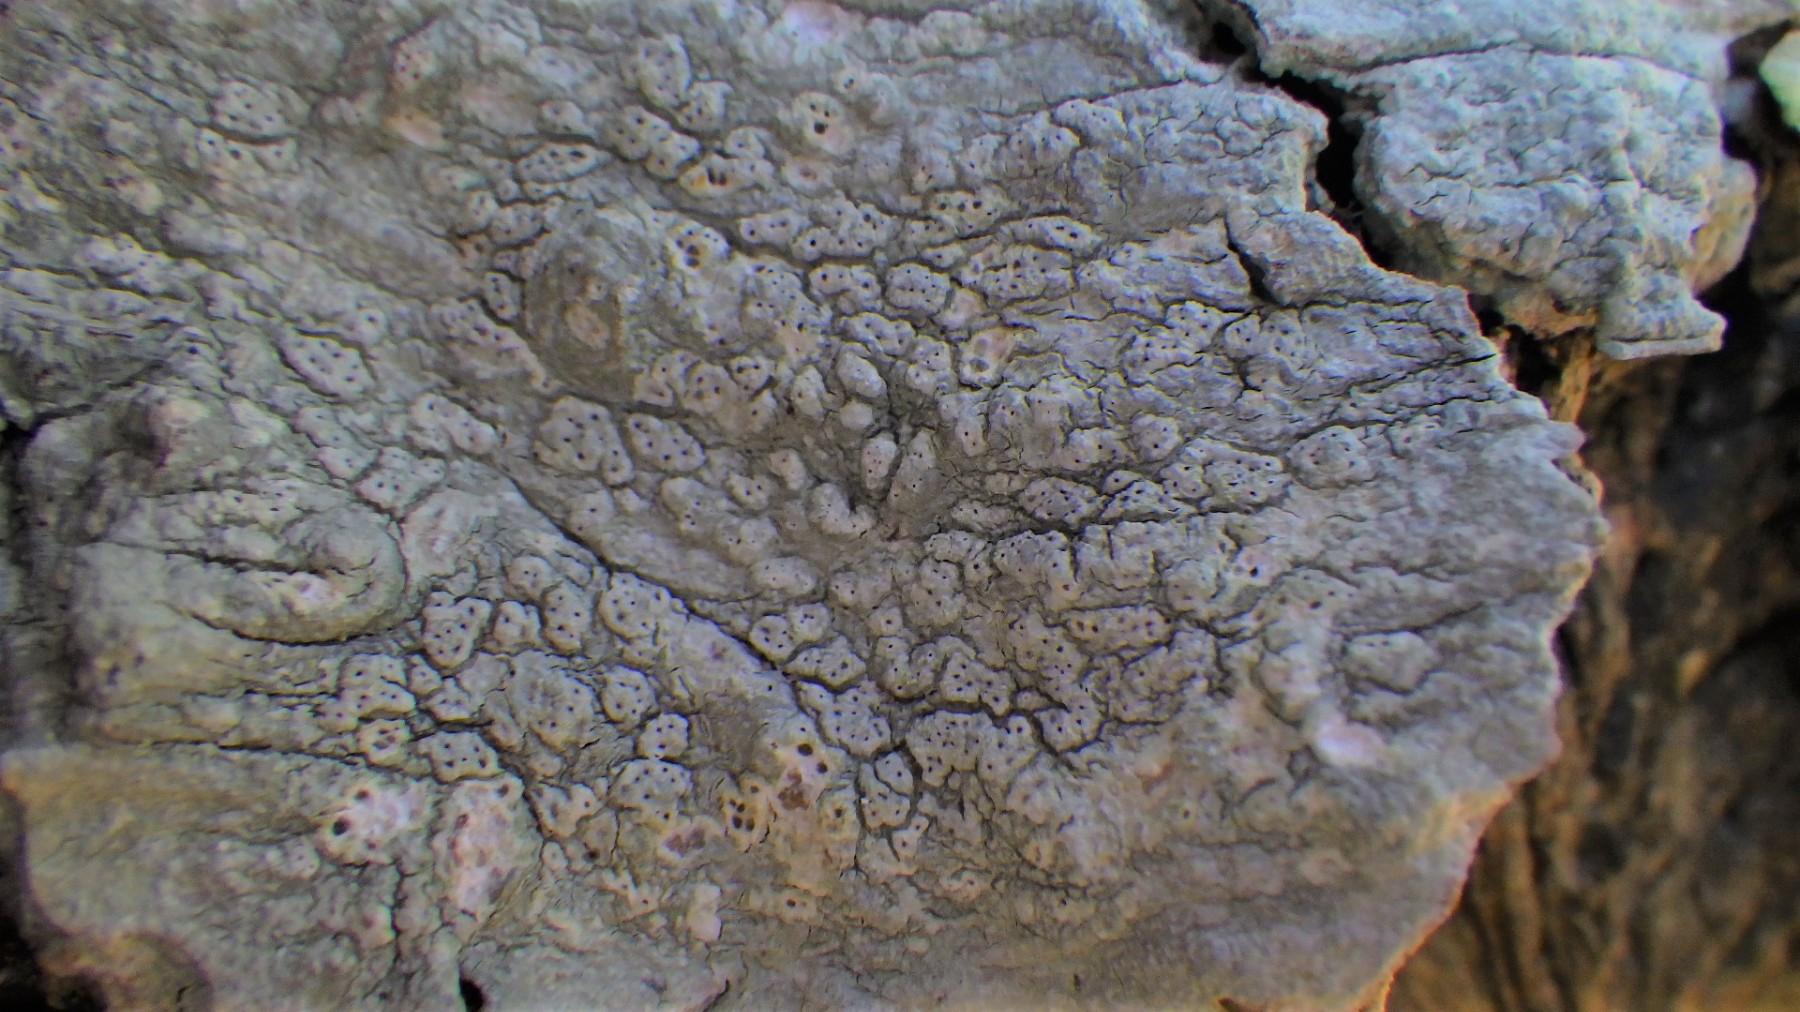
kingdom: Fungi
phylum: Ascomycota
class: Lecanoromycetes
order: Pertusariales
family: Pertusariaceae
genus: Pertusaria
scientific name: Pertusaria pertusa
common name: almindelig prikvortelav
